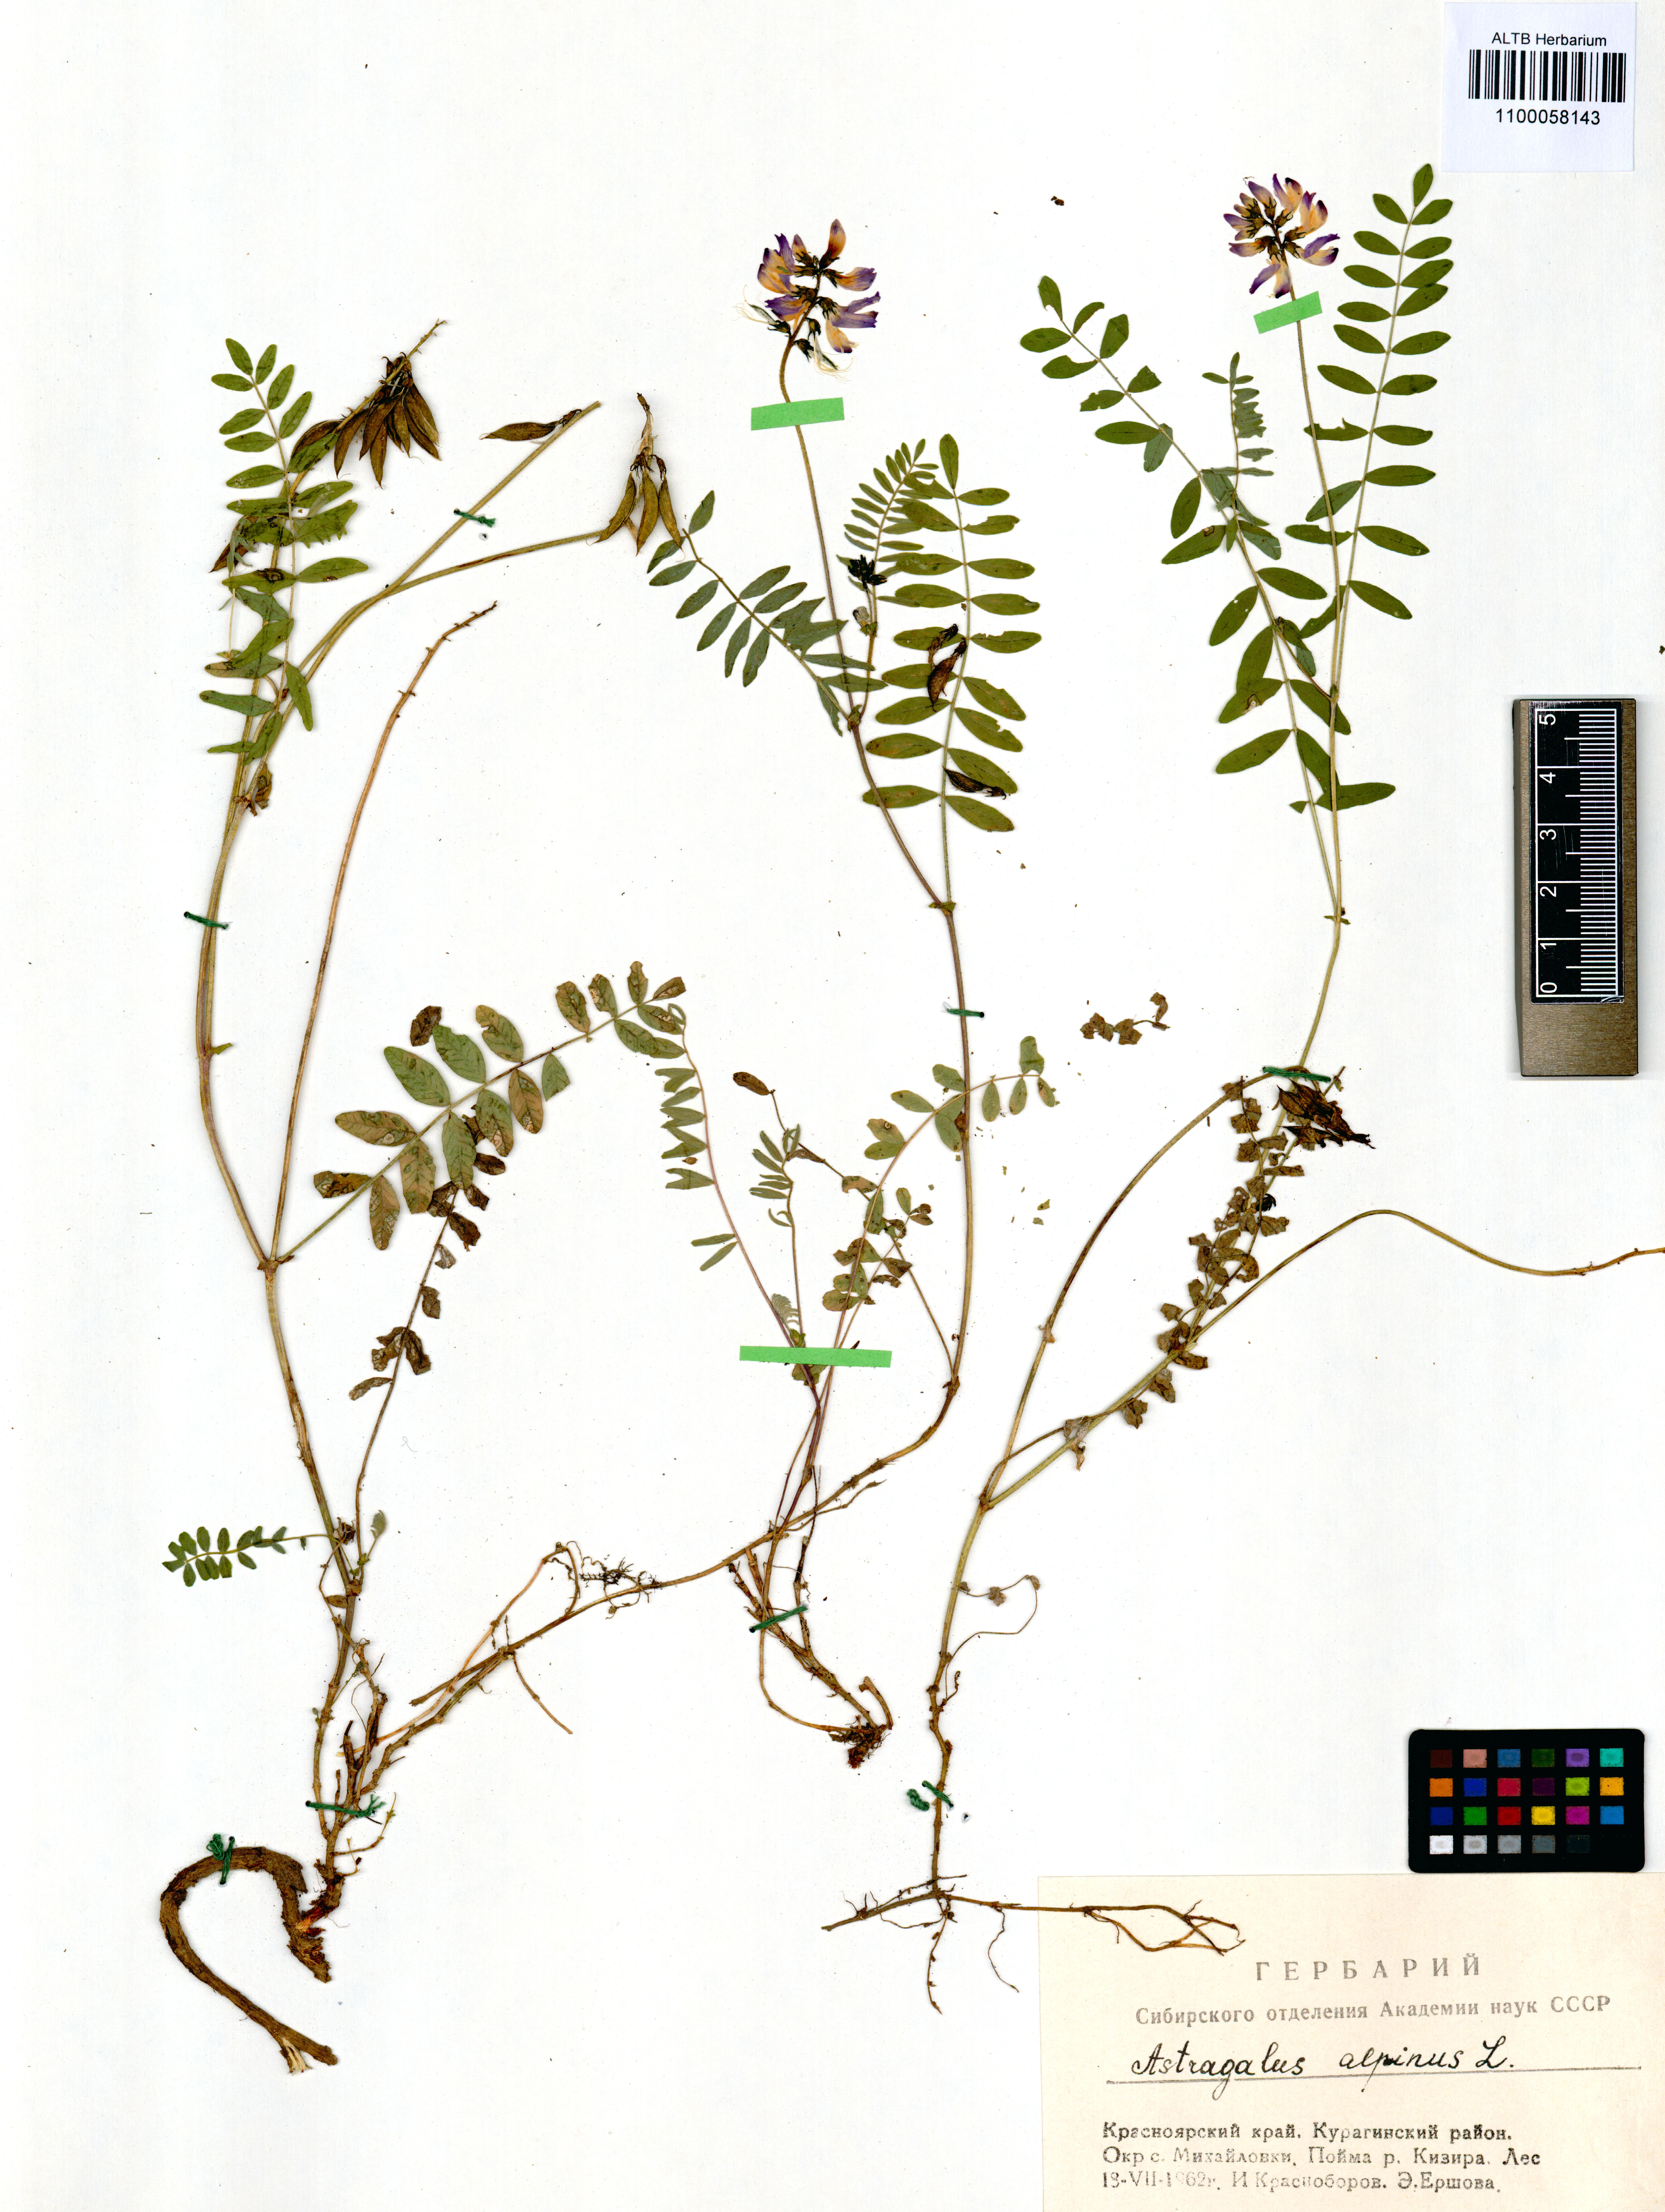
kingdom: Plantae
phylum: Tracheophyta
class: Magnoliopsida
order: Fabales
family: Fabaceae
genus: Astragalus
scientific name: Astragalus alpinus
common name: Alpine milk-vetch
